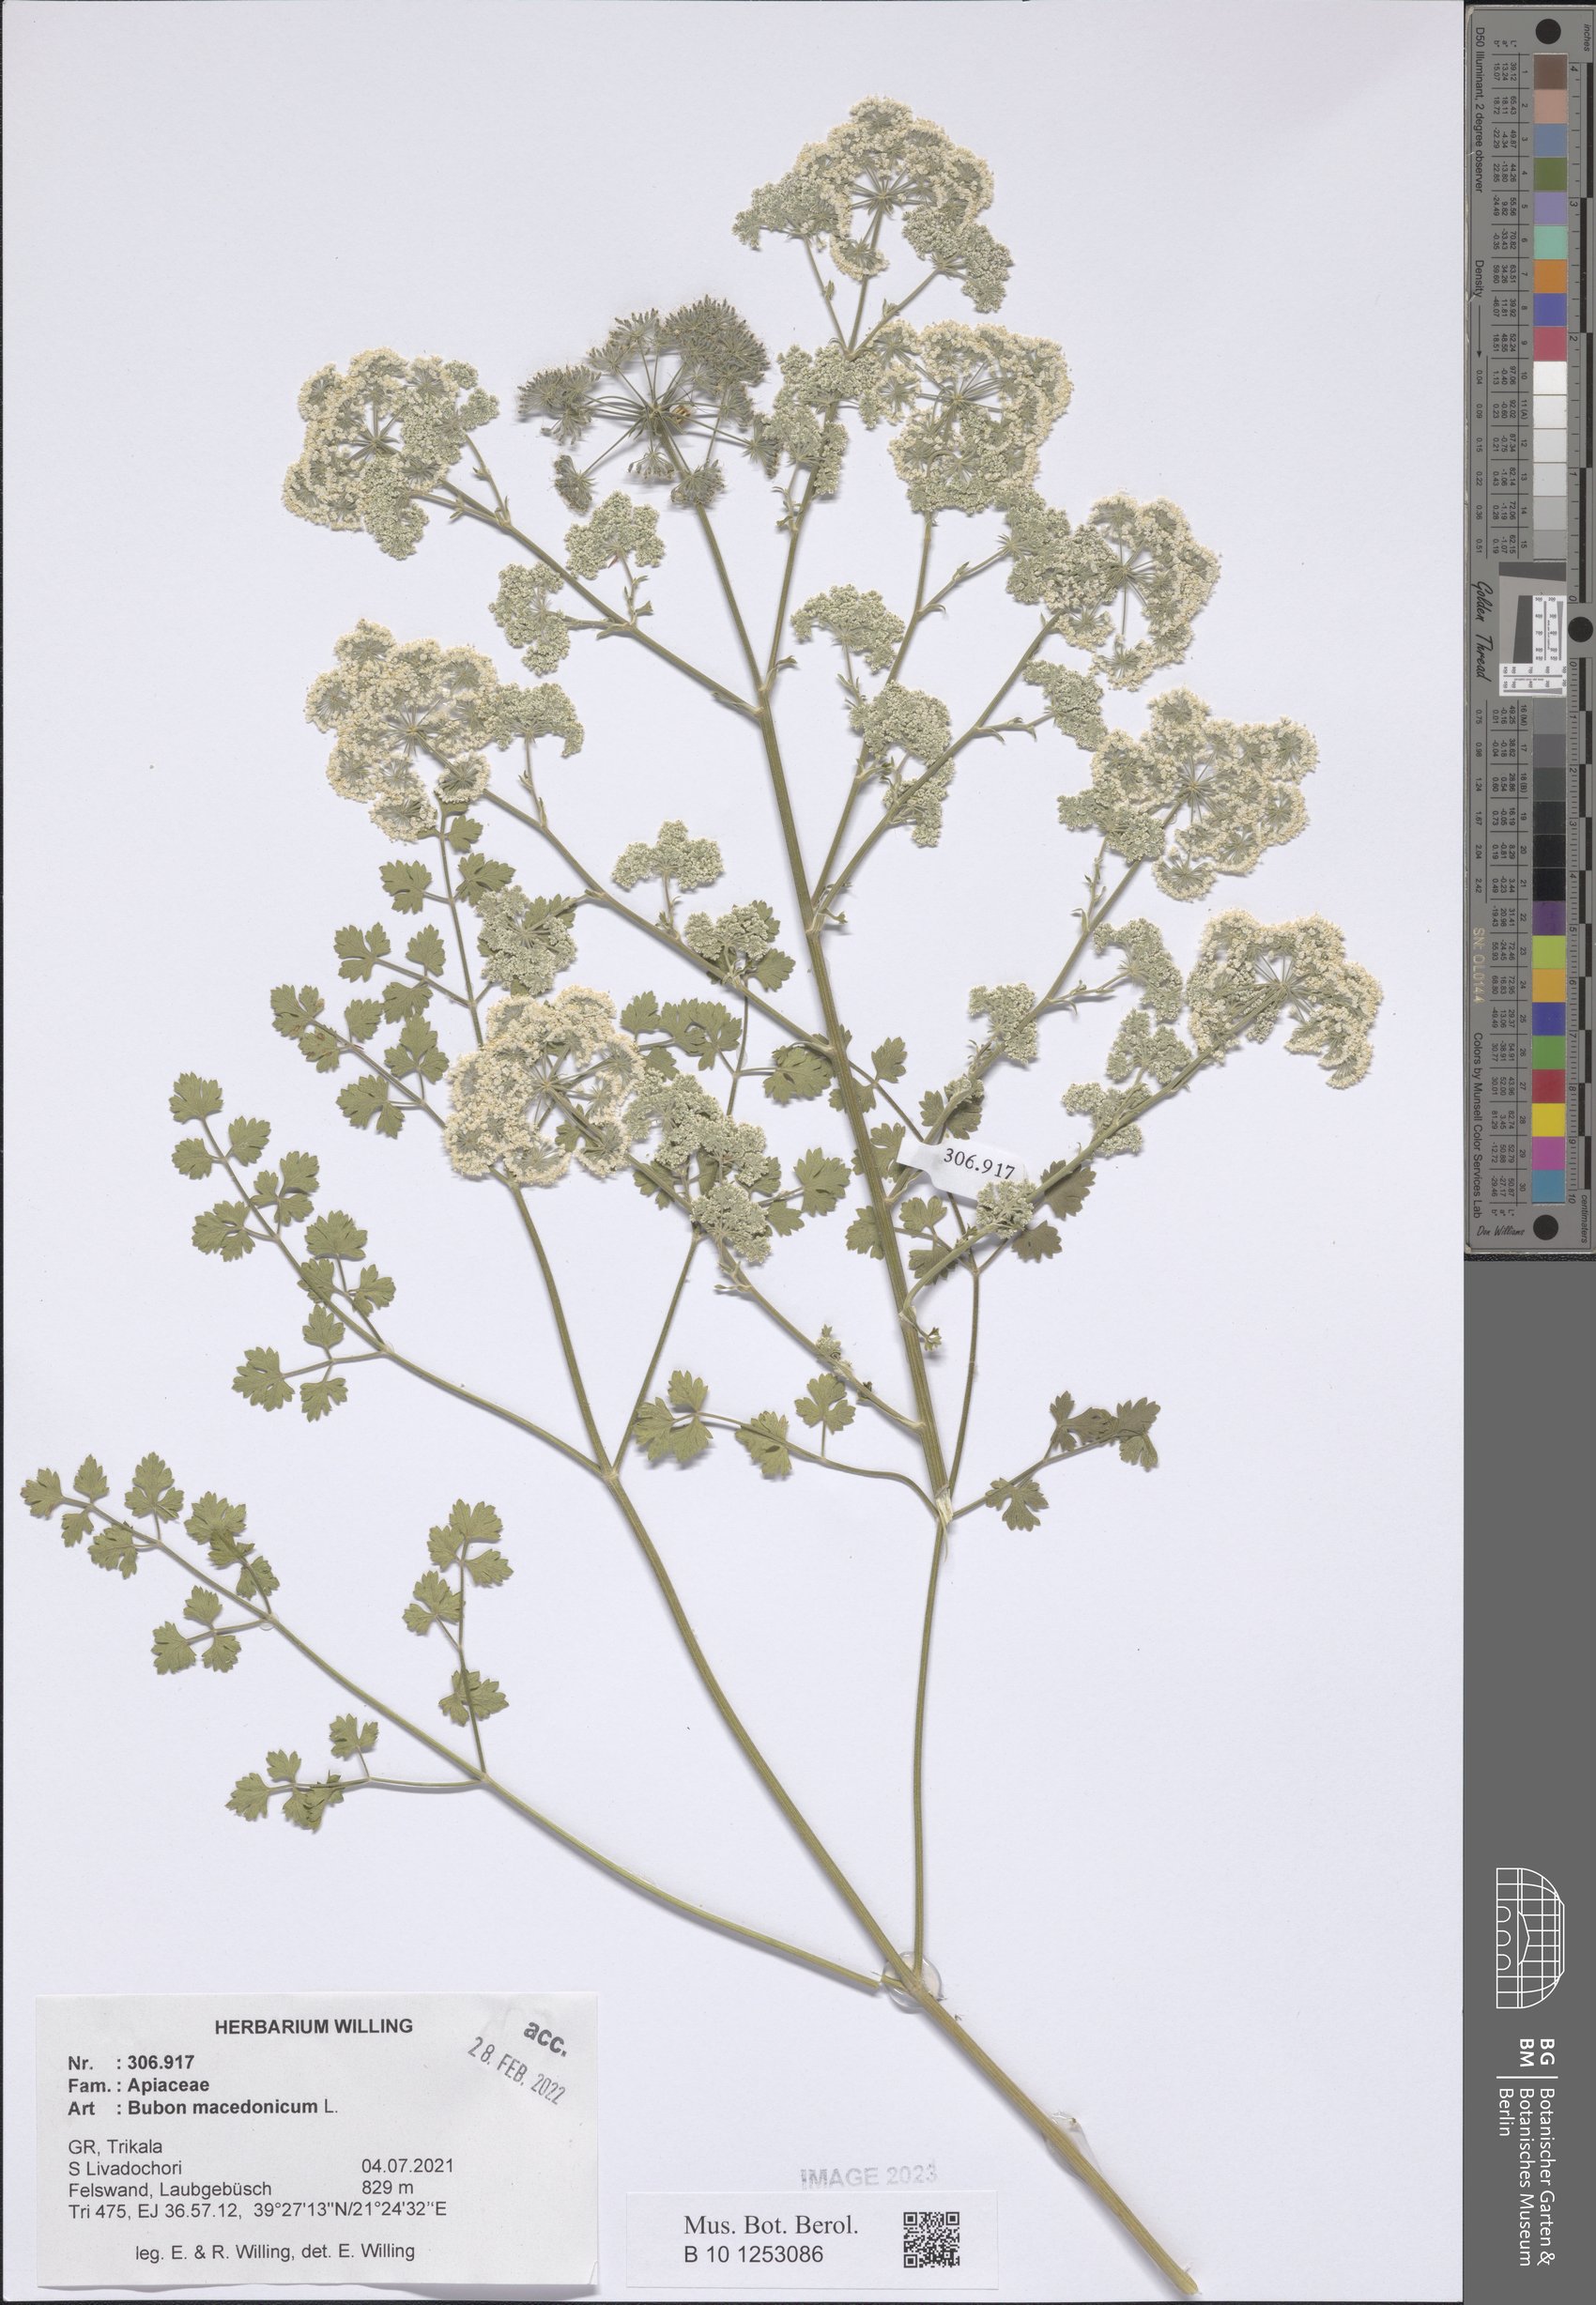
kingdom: Plantae
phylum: Tracheophyta
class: Magnoliopsida
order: Apiales
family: Apiaceae
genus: Bubon
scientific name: Bubon macedonicum
